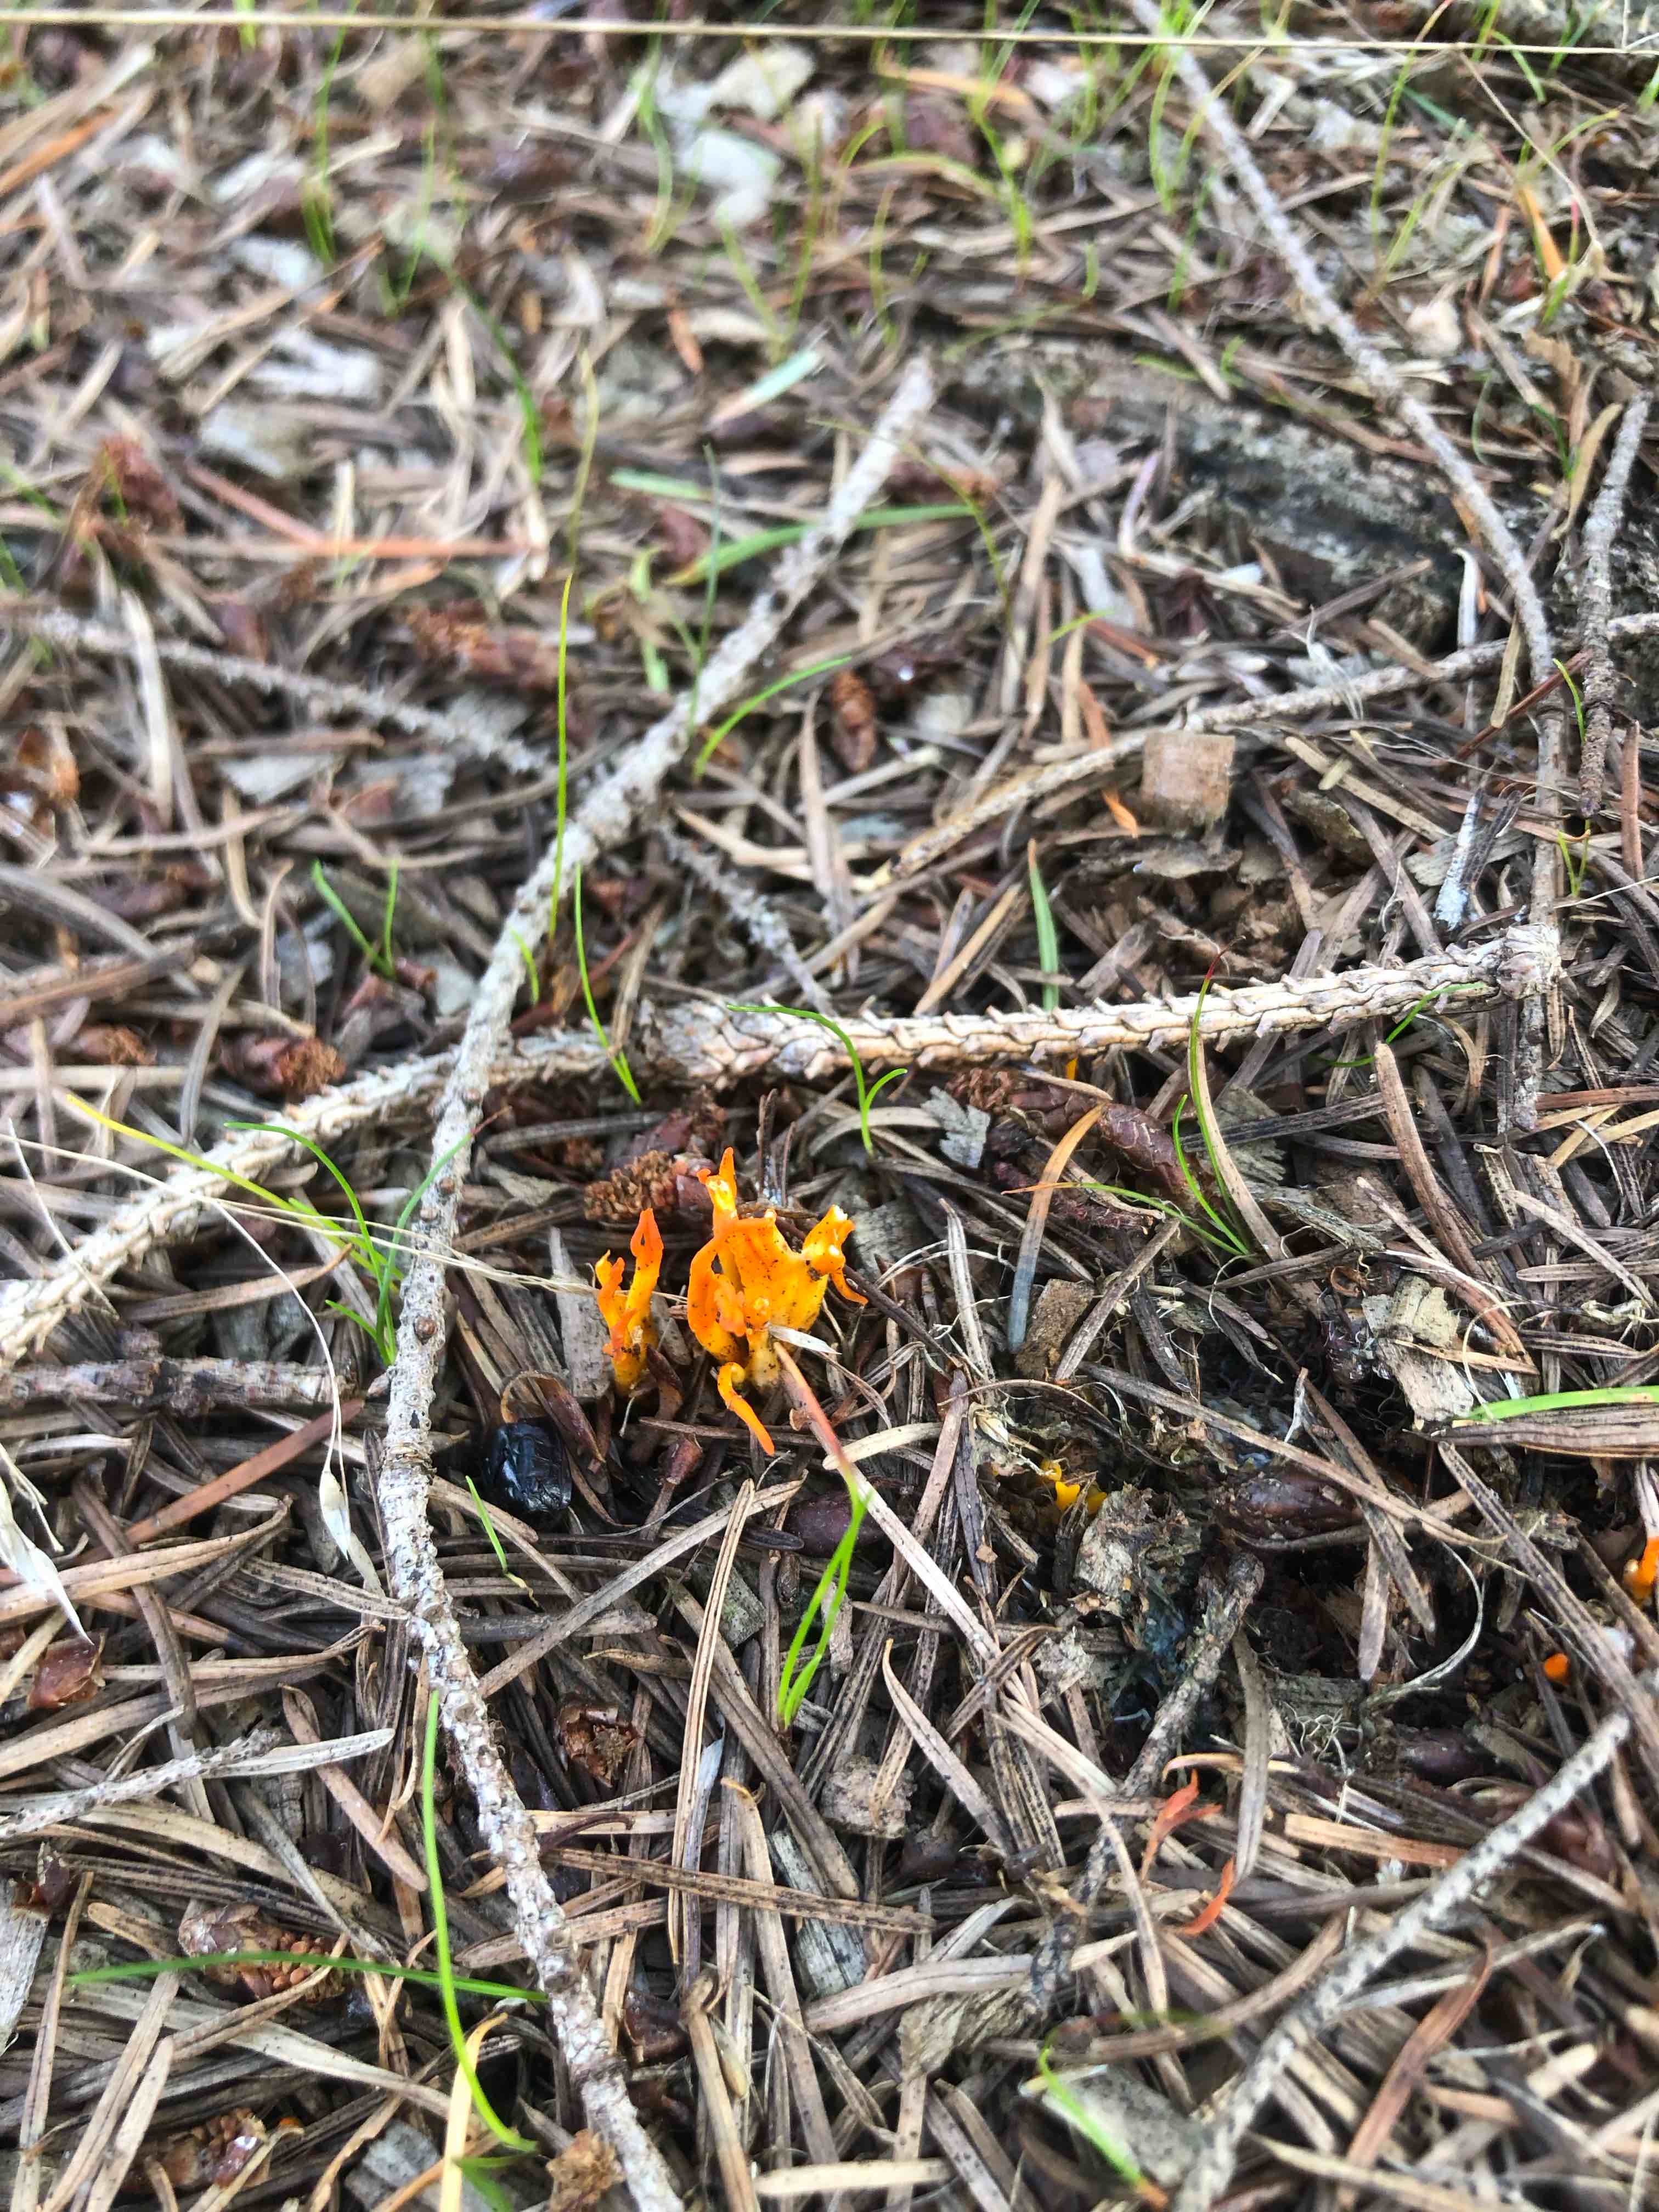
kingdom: Fungi
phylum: Basidiomycota
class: Dacrymycetes
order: Dacrymycetales
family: Dacrymycetaceae
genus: Calocera
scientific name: Calocera viscosa
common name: almindelig guldgaffel
